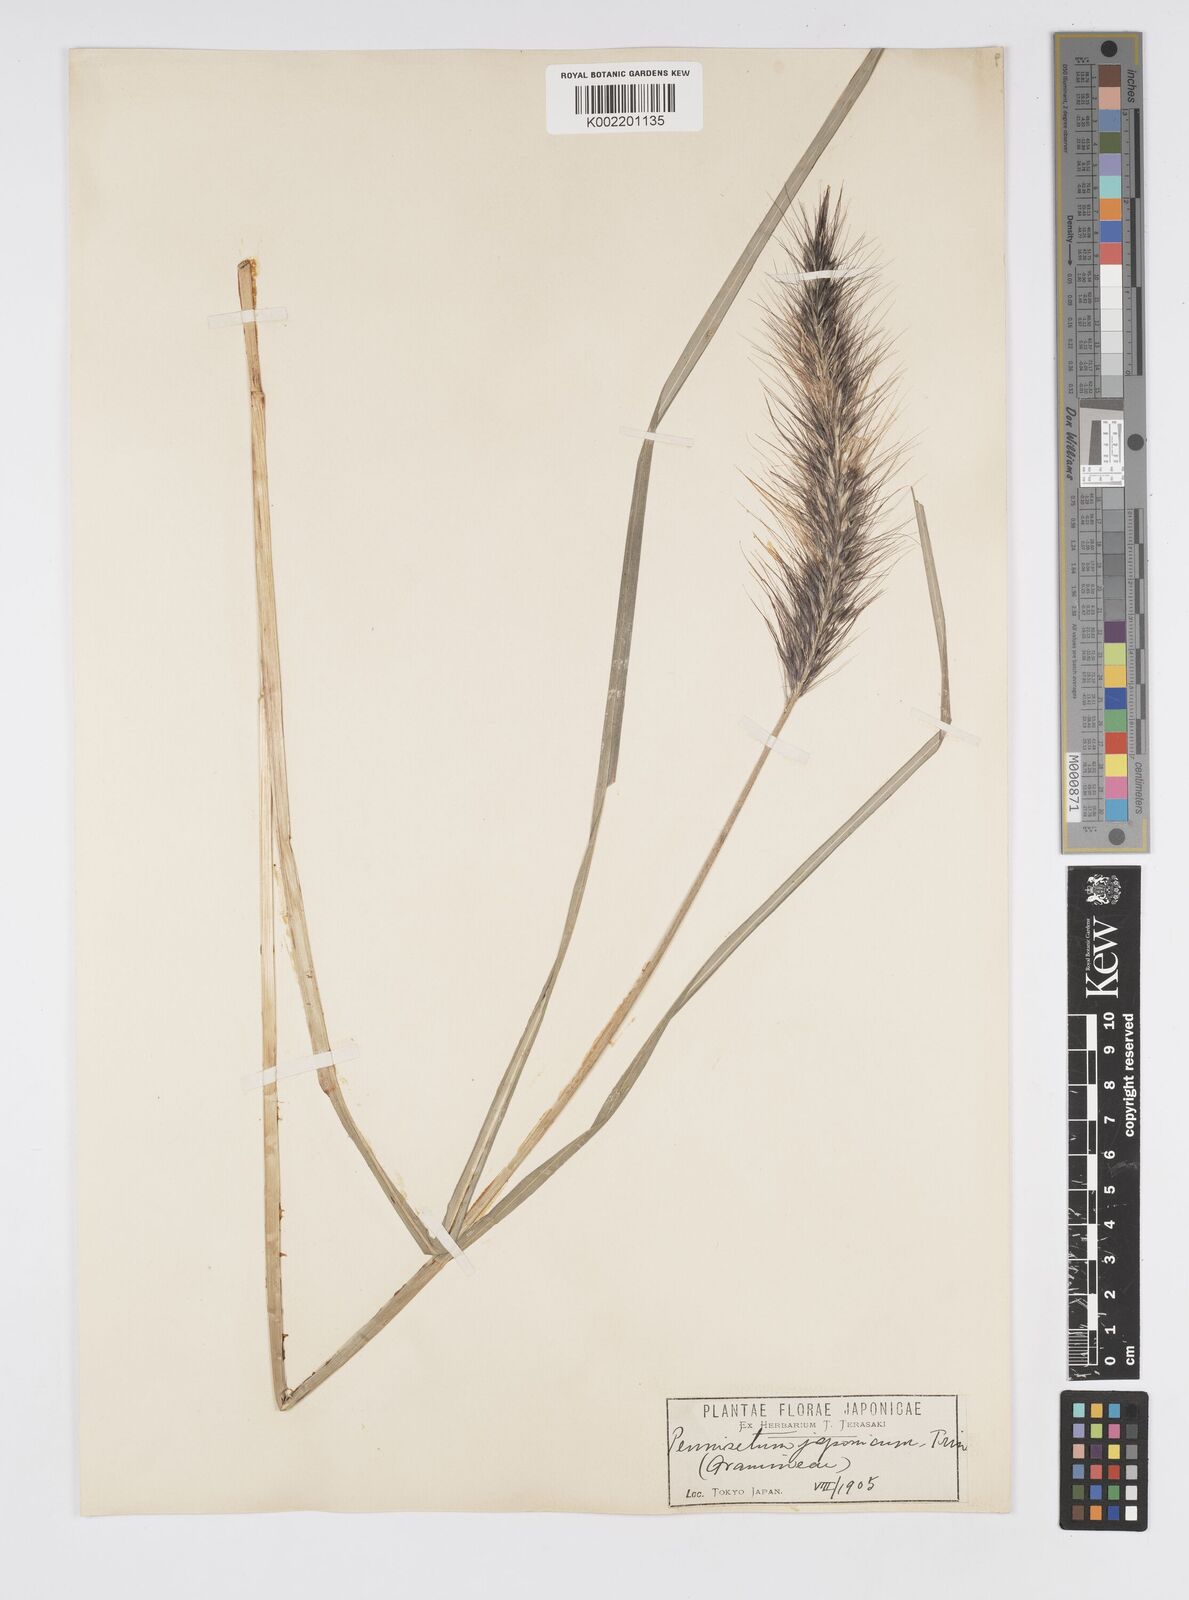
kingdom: Plantae
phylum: Tracheophyta
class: Liliopsida
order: Poales
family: Poaceae
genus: Cenchrus
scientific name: Cenchrus alopecuroides
